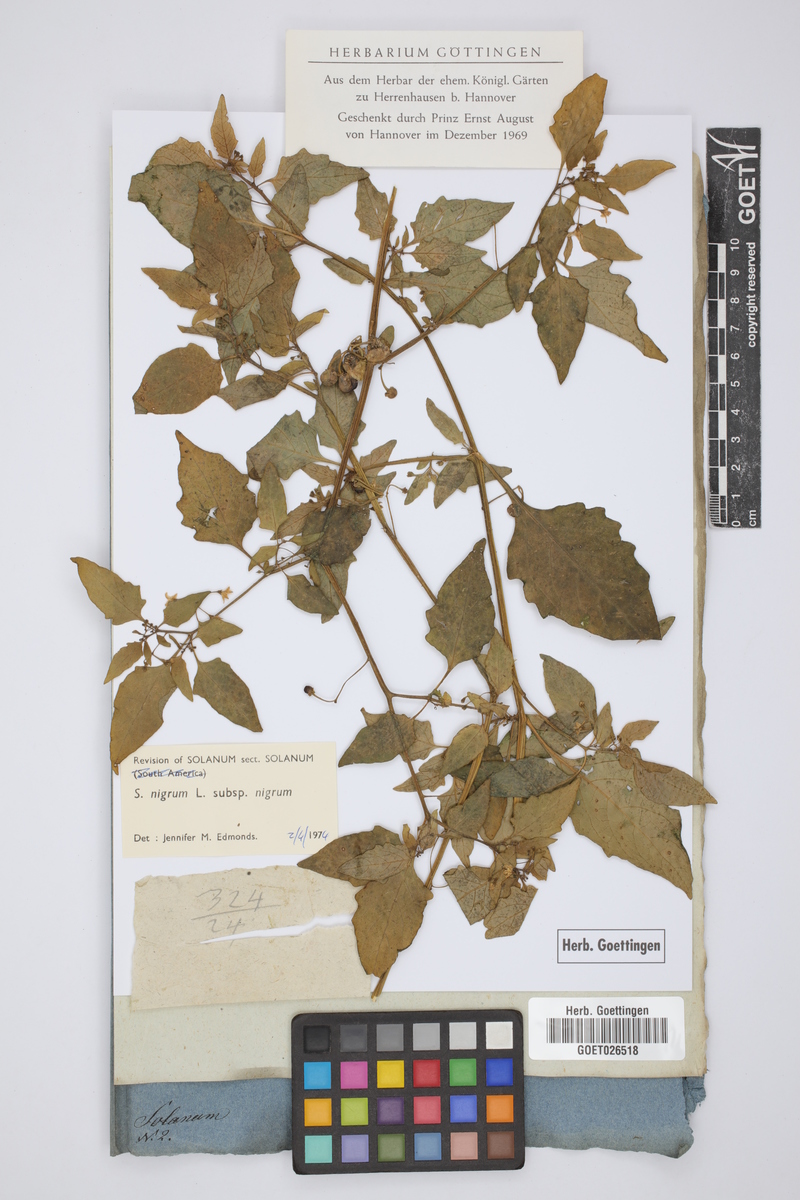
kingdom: Plantae
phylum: Tracheophyta
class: Magnoliopsida
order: Solanales
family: Solanaceae
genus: Solanum
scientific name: Solanum nigrum
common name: Black nightshade
